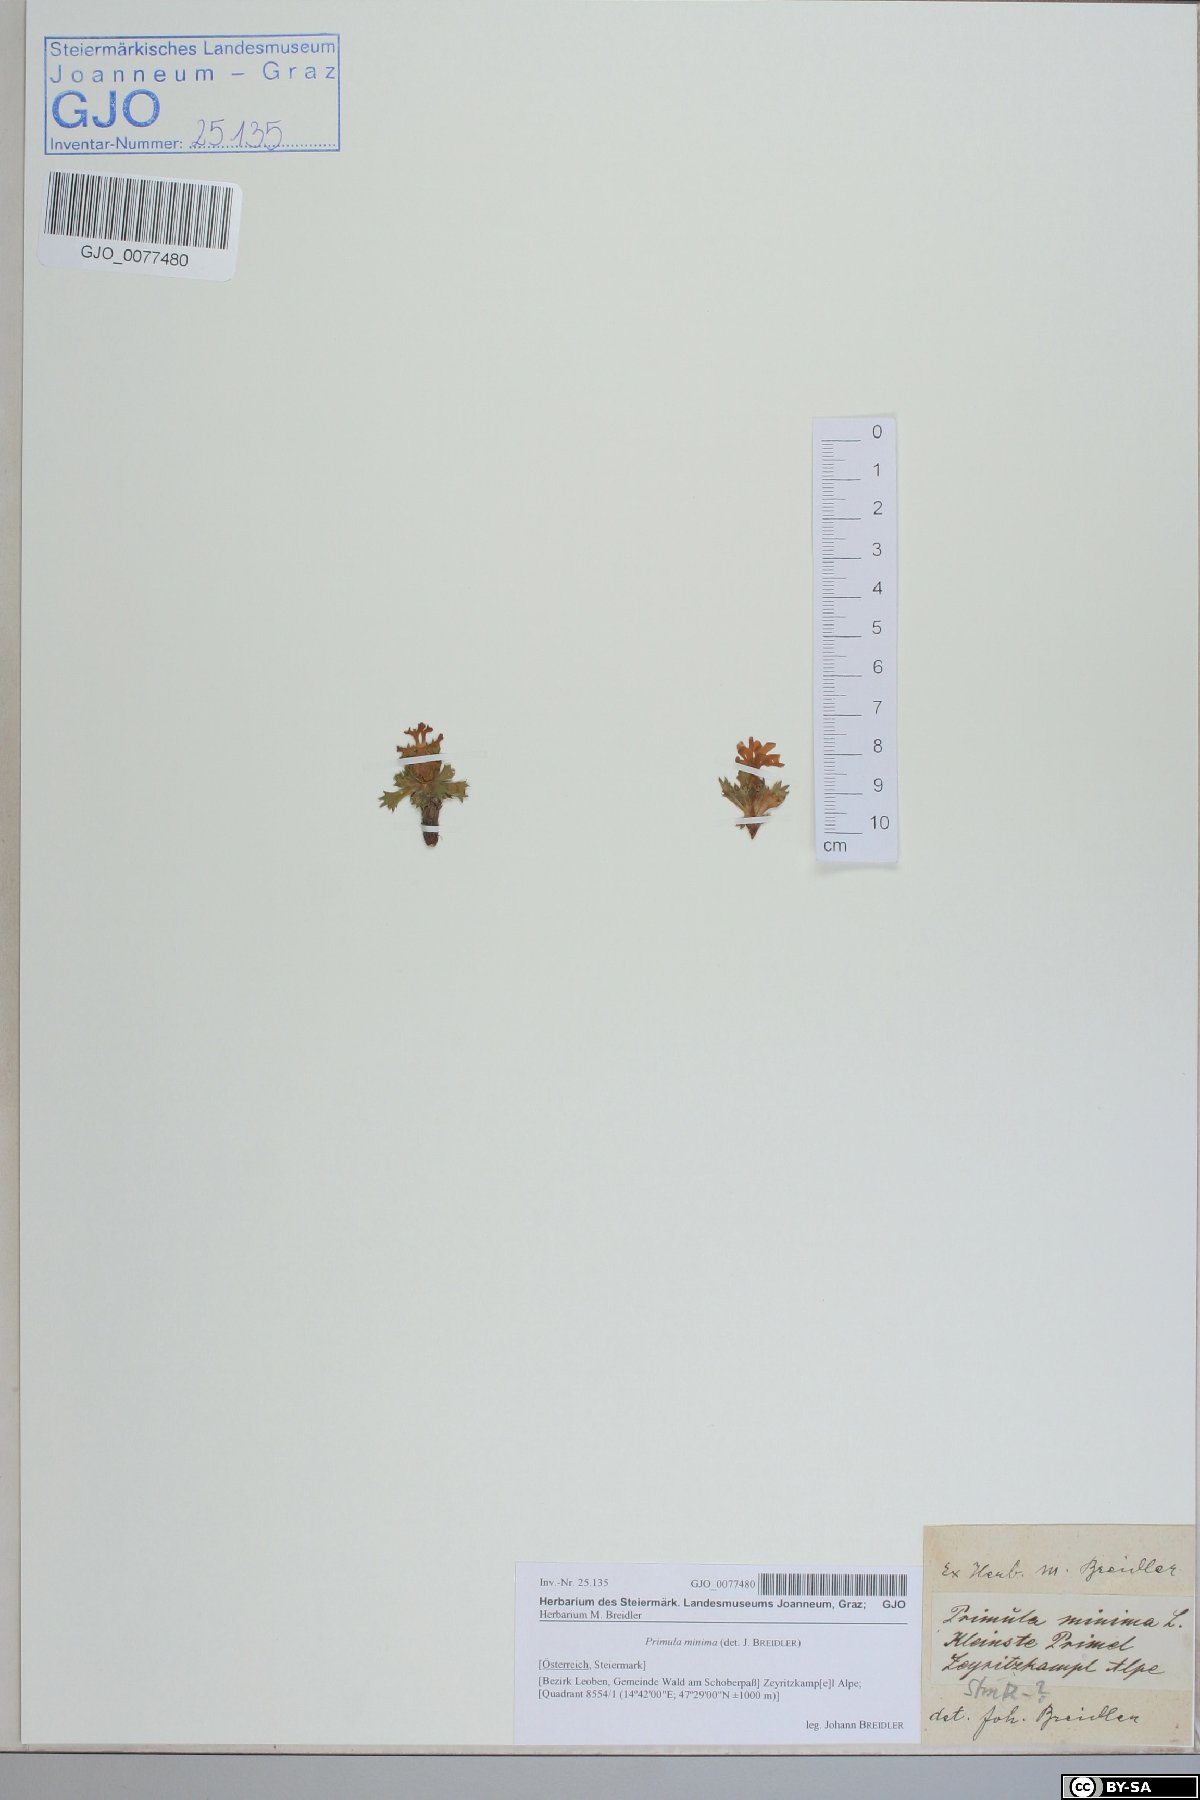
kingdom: Plantae
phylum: Tracheophyta
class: Magnoliopsida
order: Ericales
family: Primulaceae
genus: Primula
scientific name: Primula minima
